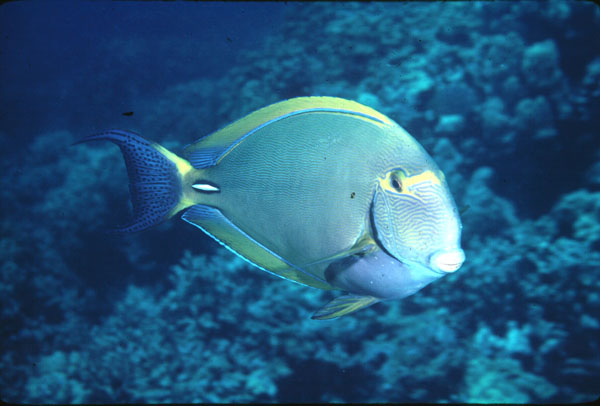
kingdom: Animalia
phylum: Chordata
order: Perciformes
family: Acanthuridae
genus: Acanthurus
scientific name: Acanthurus dussumieri
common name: Dussumier's surgeonfish
